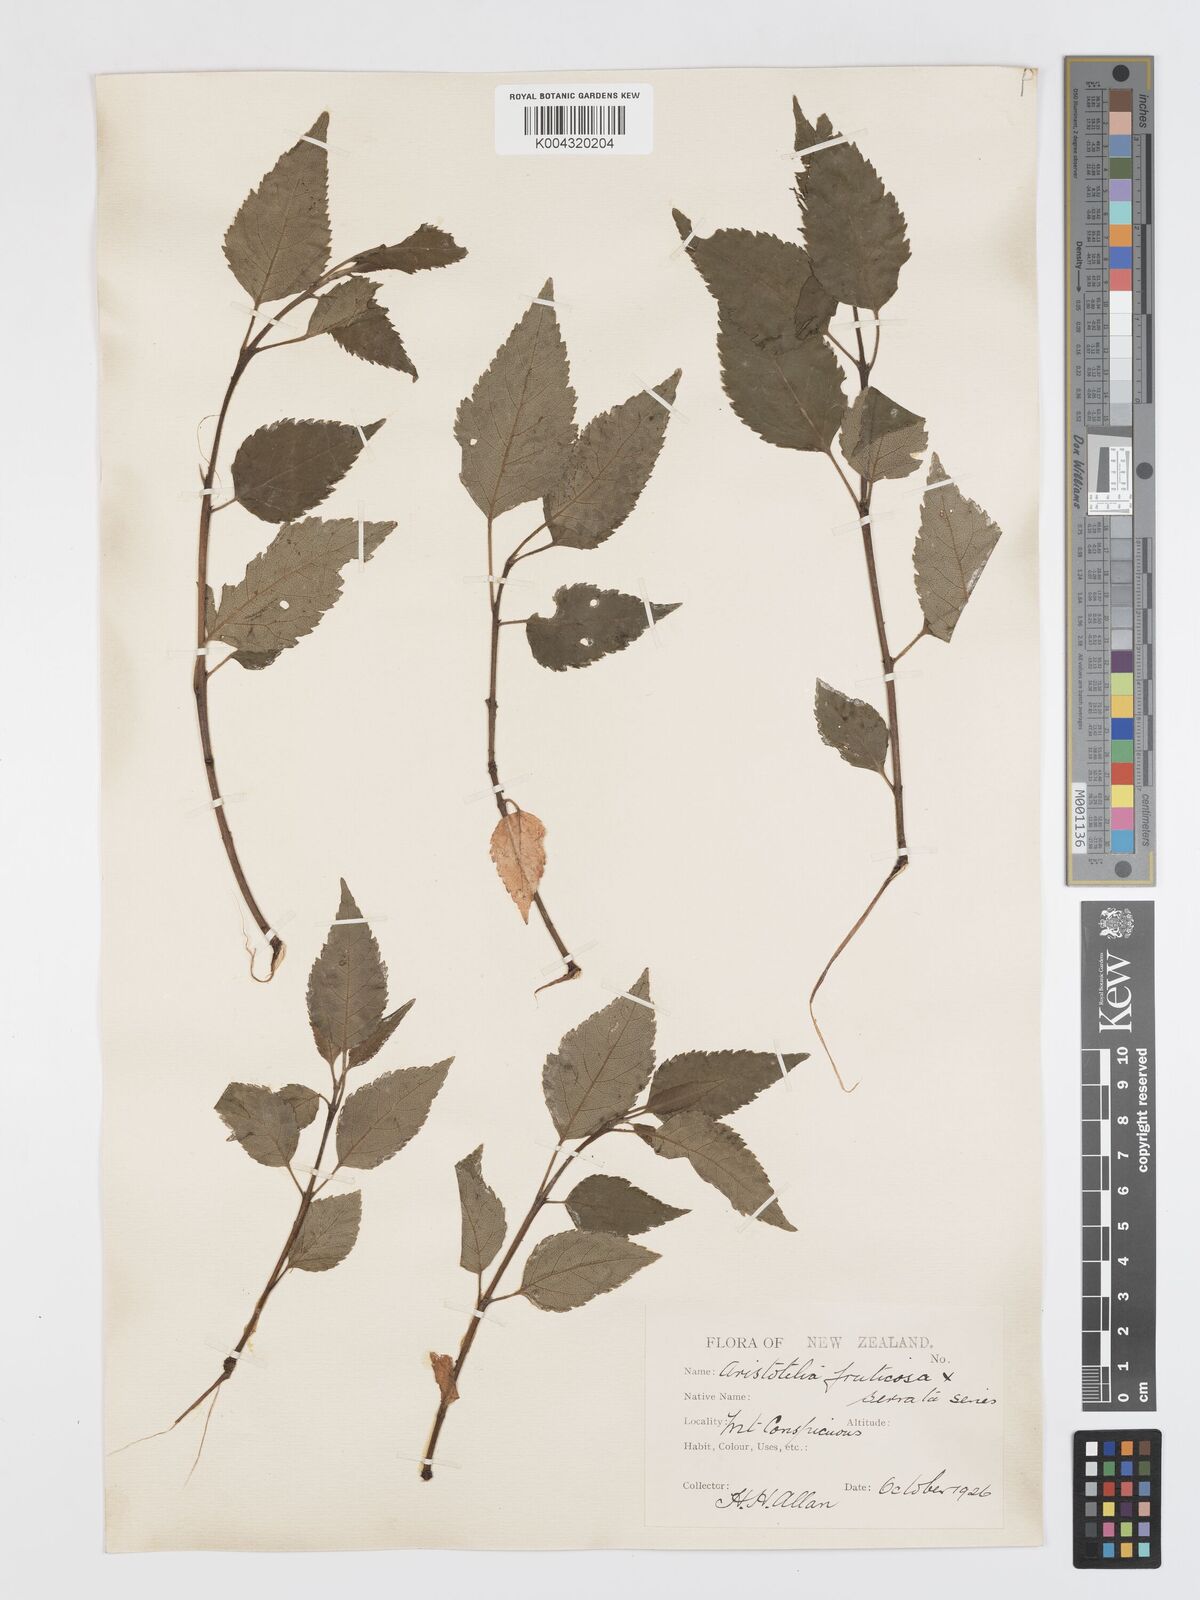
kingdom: Plantae
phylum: Tracheophyta
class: Magnoliopsida
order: Oxalidales
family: Elaeocarpaceae
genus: Aristotelia
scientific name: Aristotelia fruticosa
